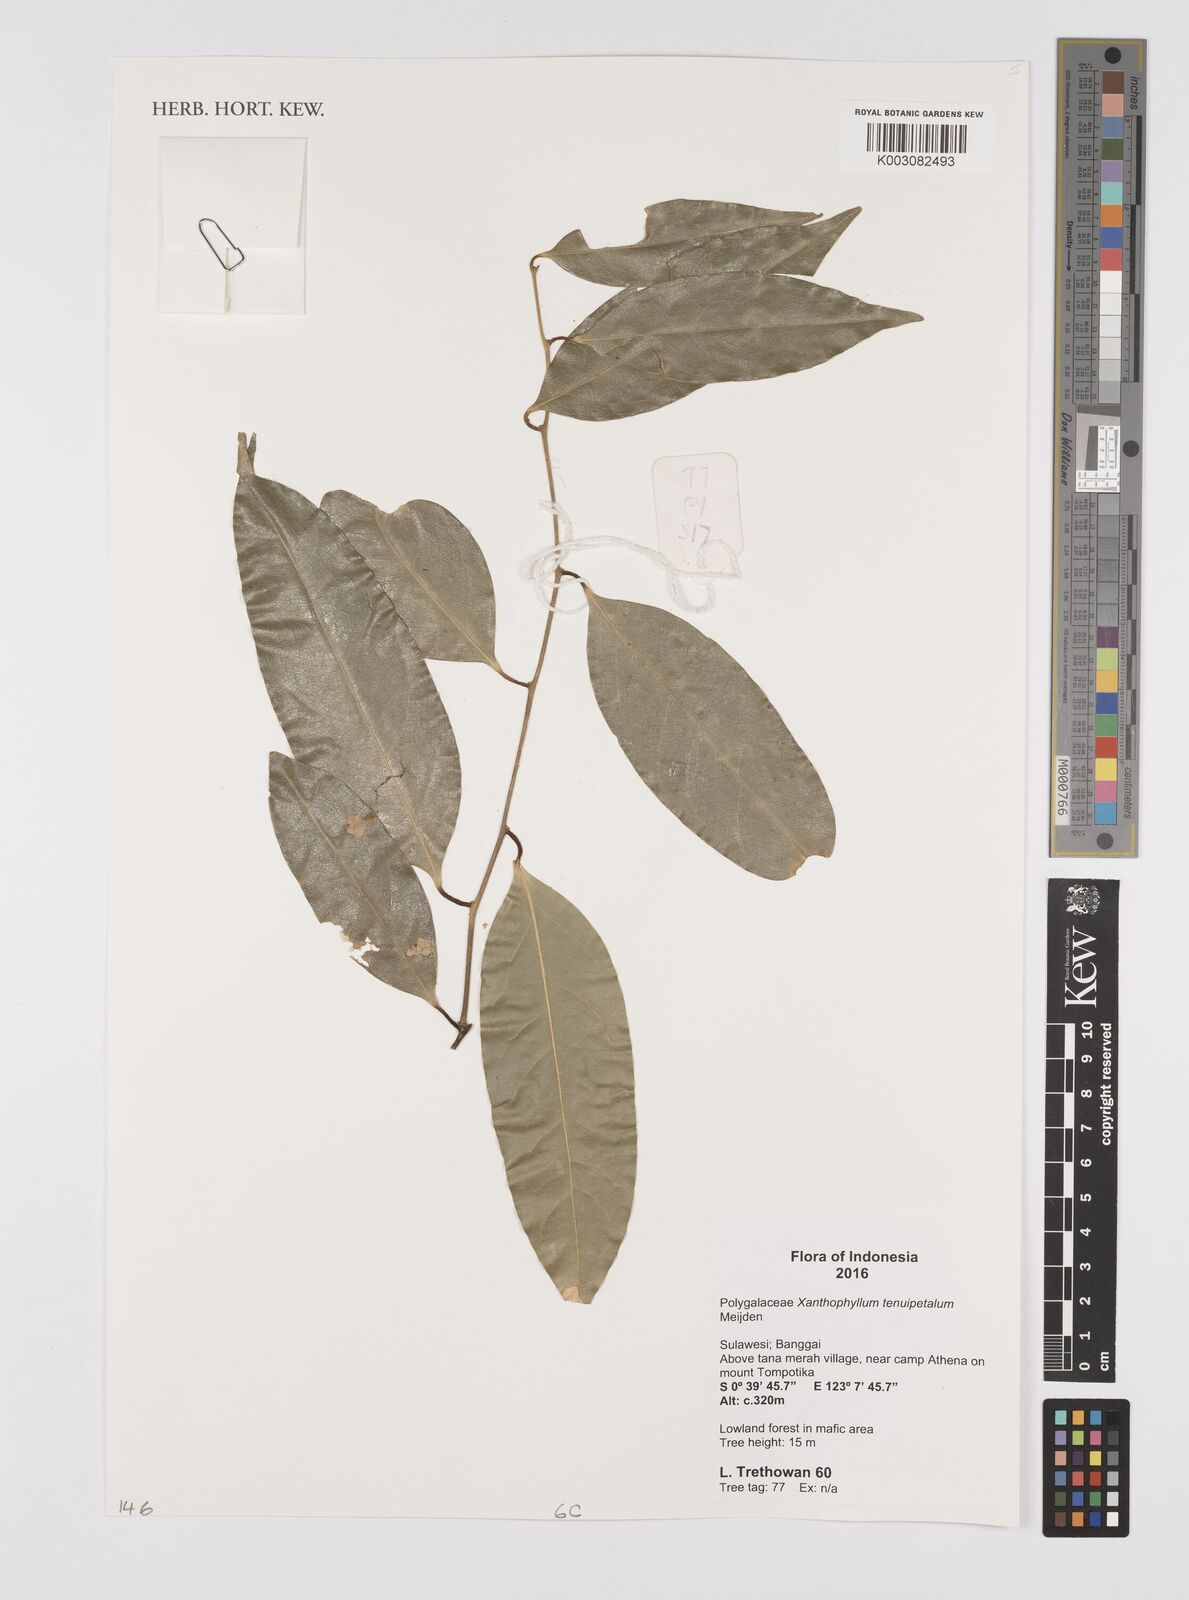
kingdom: Plantae
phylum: Tracheophyta
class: Magnoliopsida
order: Fabales
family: Polygalaceae
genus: Xanthophyllum
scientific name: Xanthophyllum tenuipetalum
